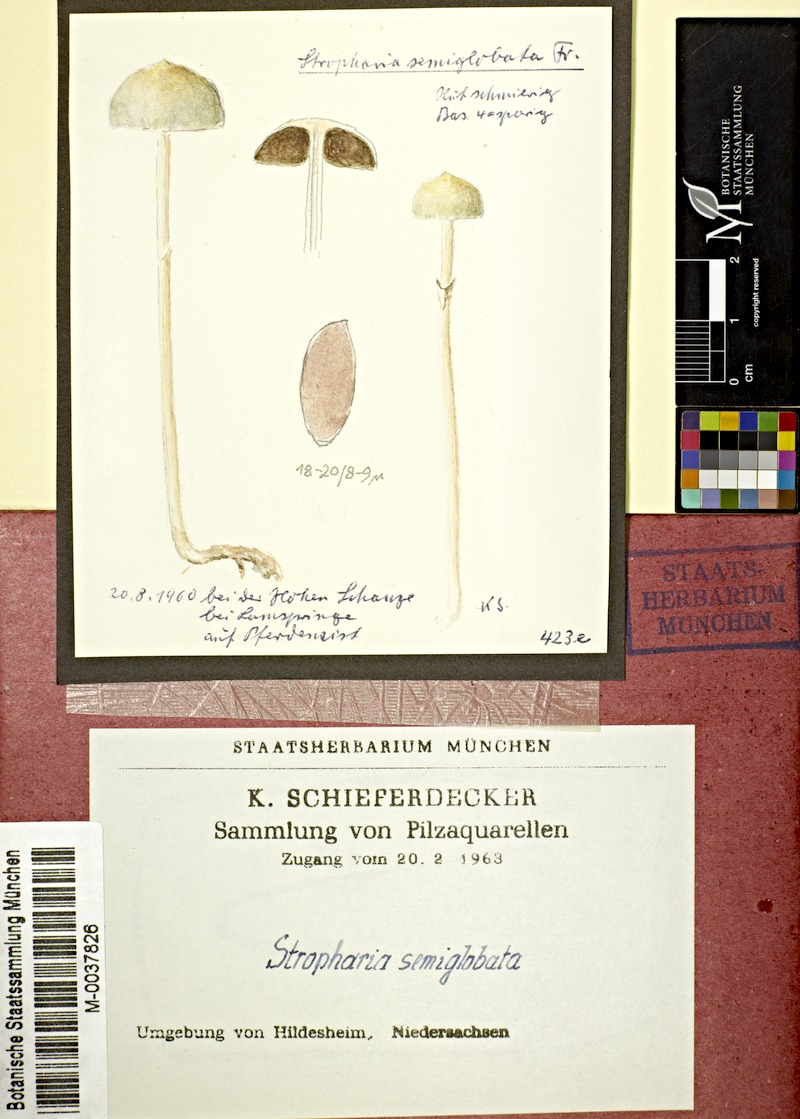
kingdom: Fungi
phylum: Basidiomycota
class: Agaricomycetes
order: Agaricales
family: Strophariaceae
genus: Protostropharia
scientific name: Protostropharia semiglobata
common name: Dung roundhead
